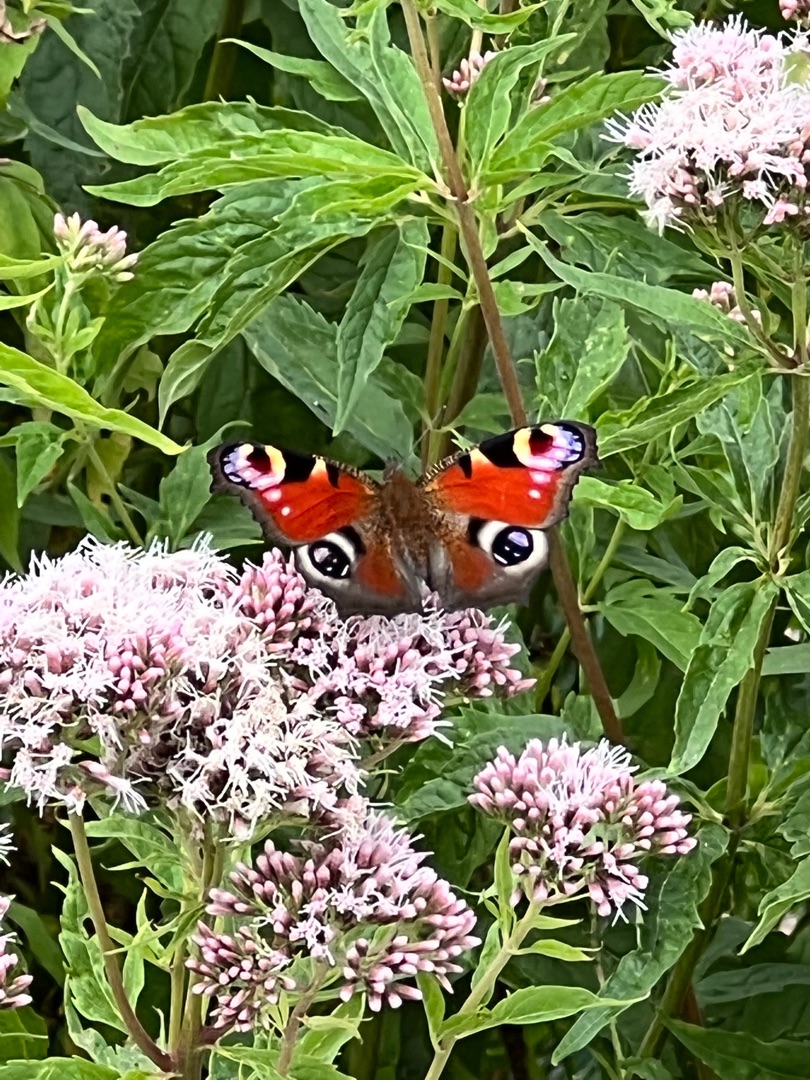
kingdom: Animalia
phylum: Arthropoda
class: Insecta
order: Lepidoptera
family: Nymphalidae
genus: Aglais
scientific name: Aglais io
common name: Dagpåfugleøje
